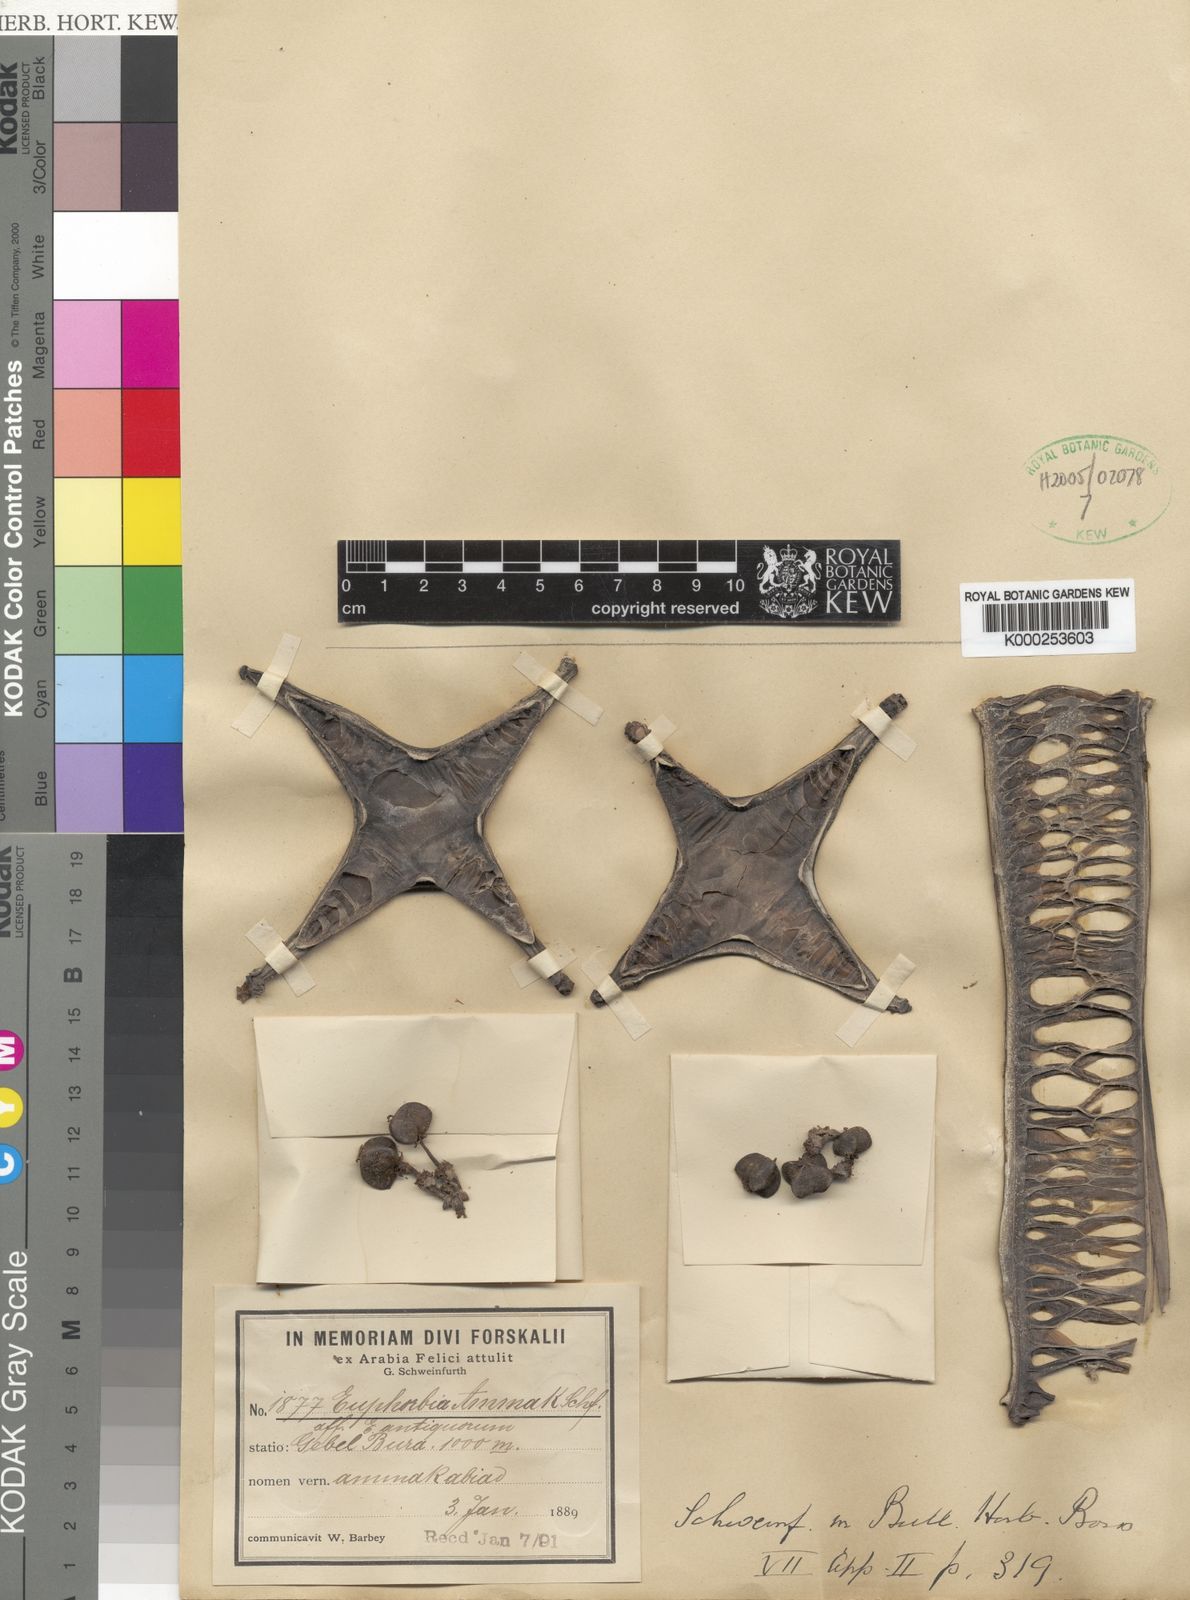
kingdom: Plantae
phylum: Tracheophyta
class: Magnoliopsida
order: Malpighiales
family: Euphorbiaceae
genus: Euphorbia
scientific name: Euphorbia ammak
